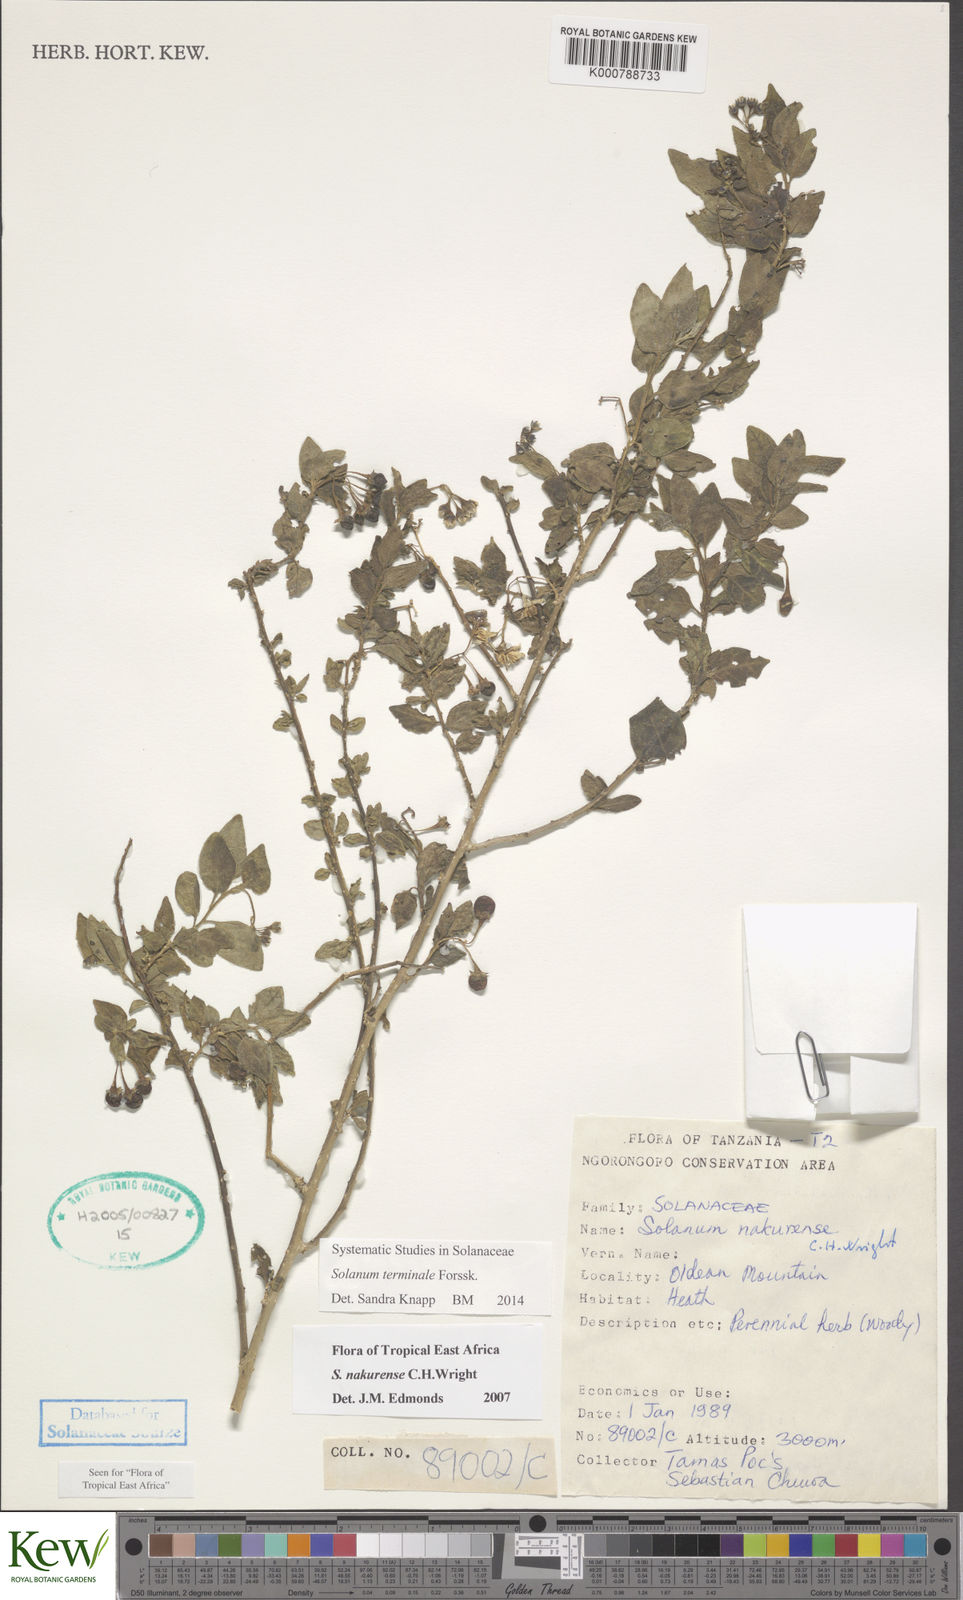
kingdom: Plantae
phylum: Tracheophyta
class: Magnoliopsida
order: Solanales
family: Solanaceae
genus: Solanum
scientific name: Solanum terminale
